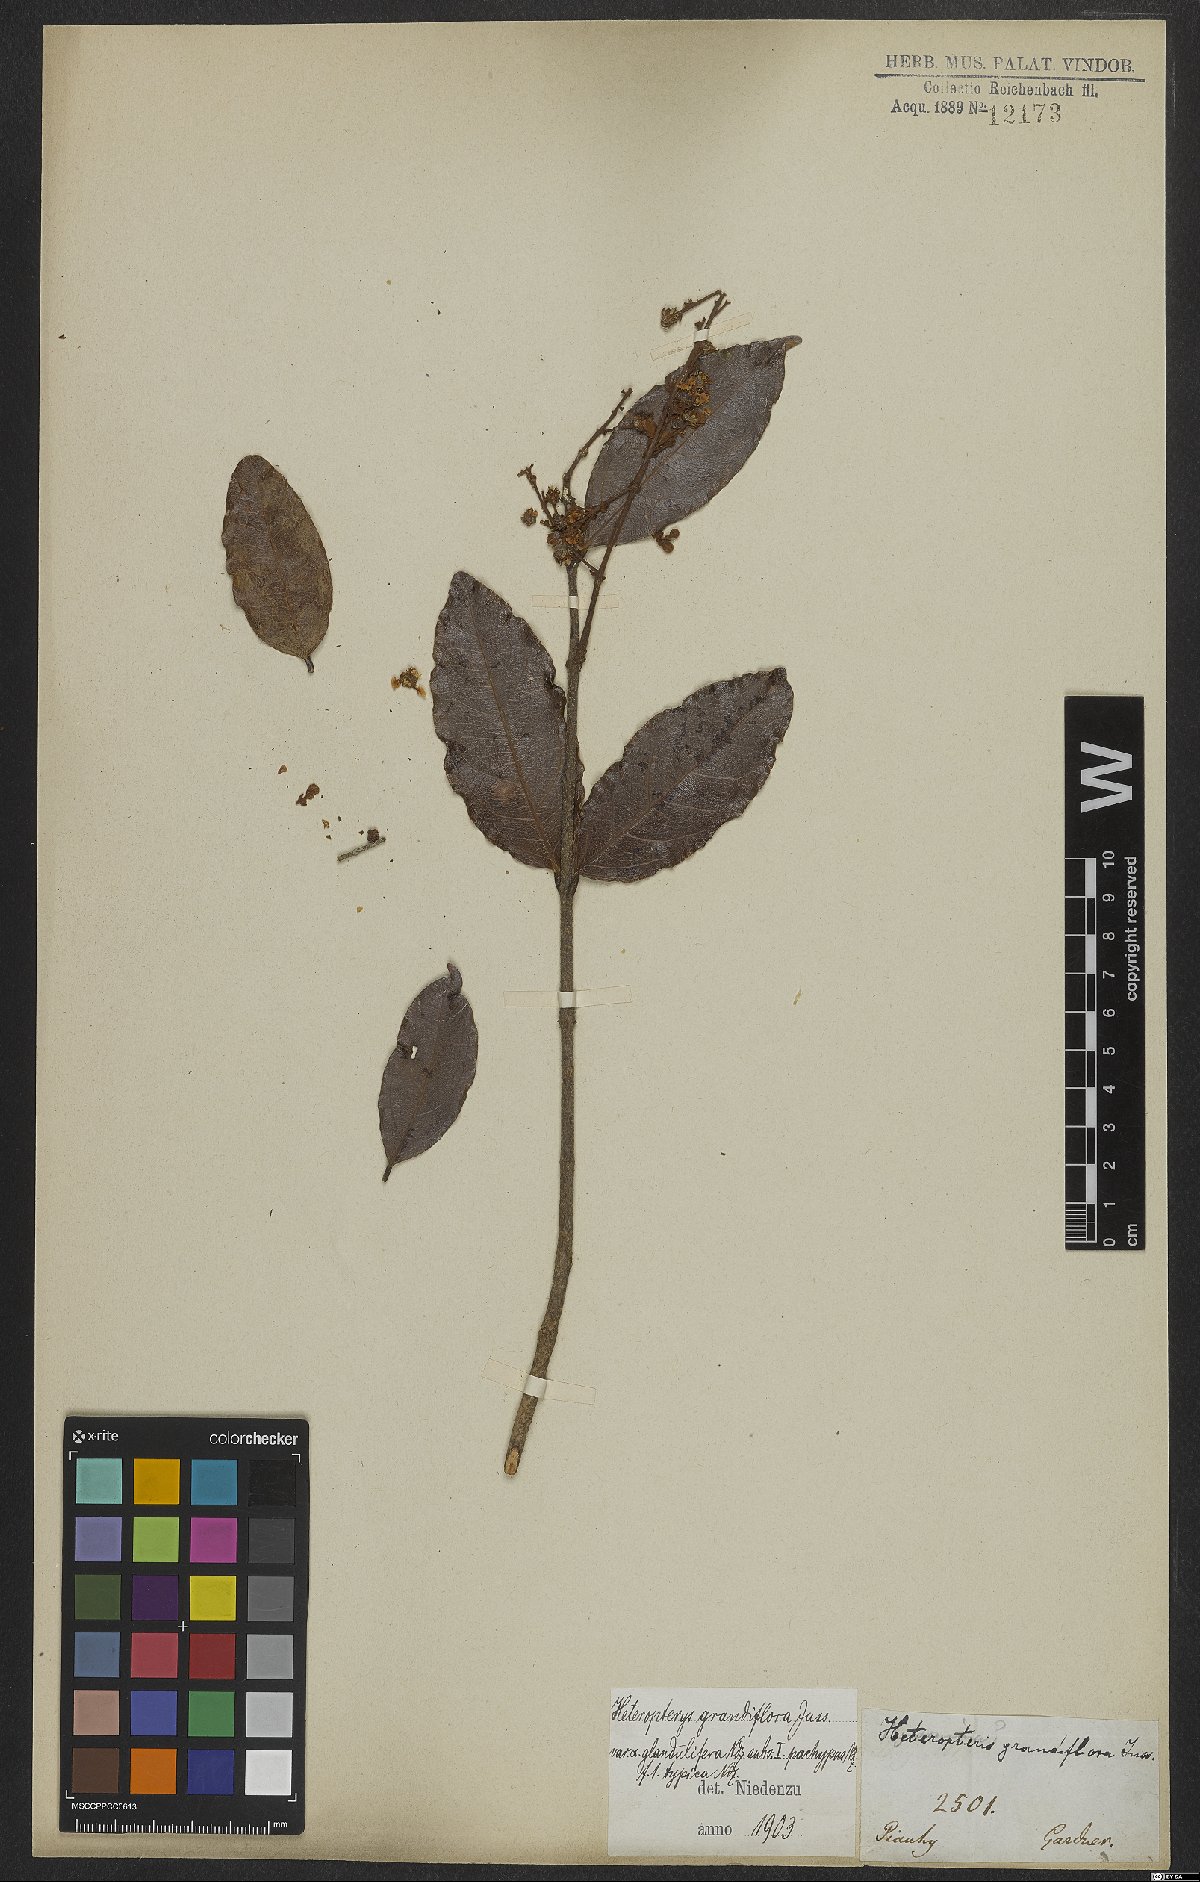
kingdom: Plantae
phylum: Tracheophyta
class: Magnoliopsida
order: Malpighiales
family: Malpighiaceae
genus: Heteropterys
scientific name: Heteropterys grandiflora
